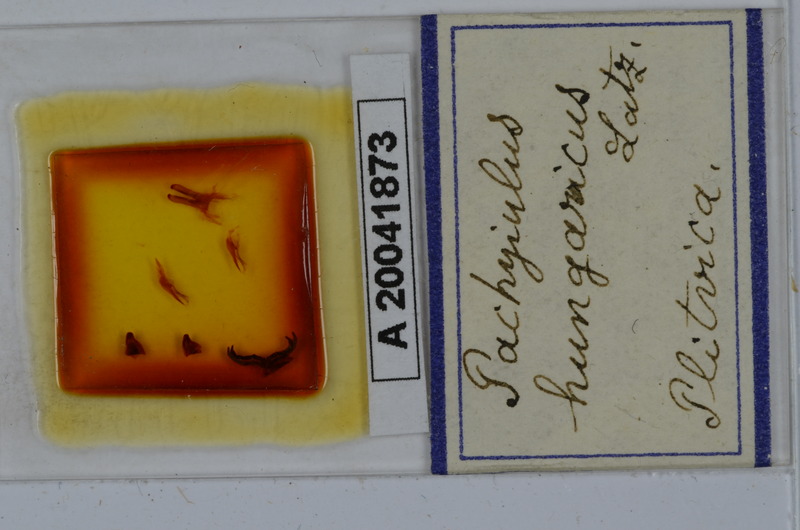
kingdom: Animalia
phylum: Arthropoda
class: Diplopoda
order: Julida
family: Julidae
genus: Pachyiulus
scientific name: Pachyiulus hungaricus
